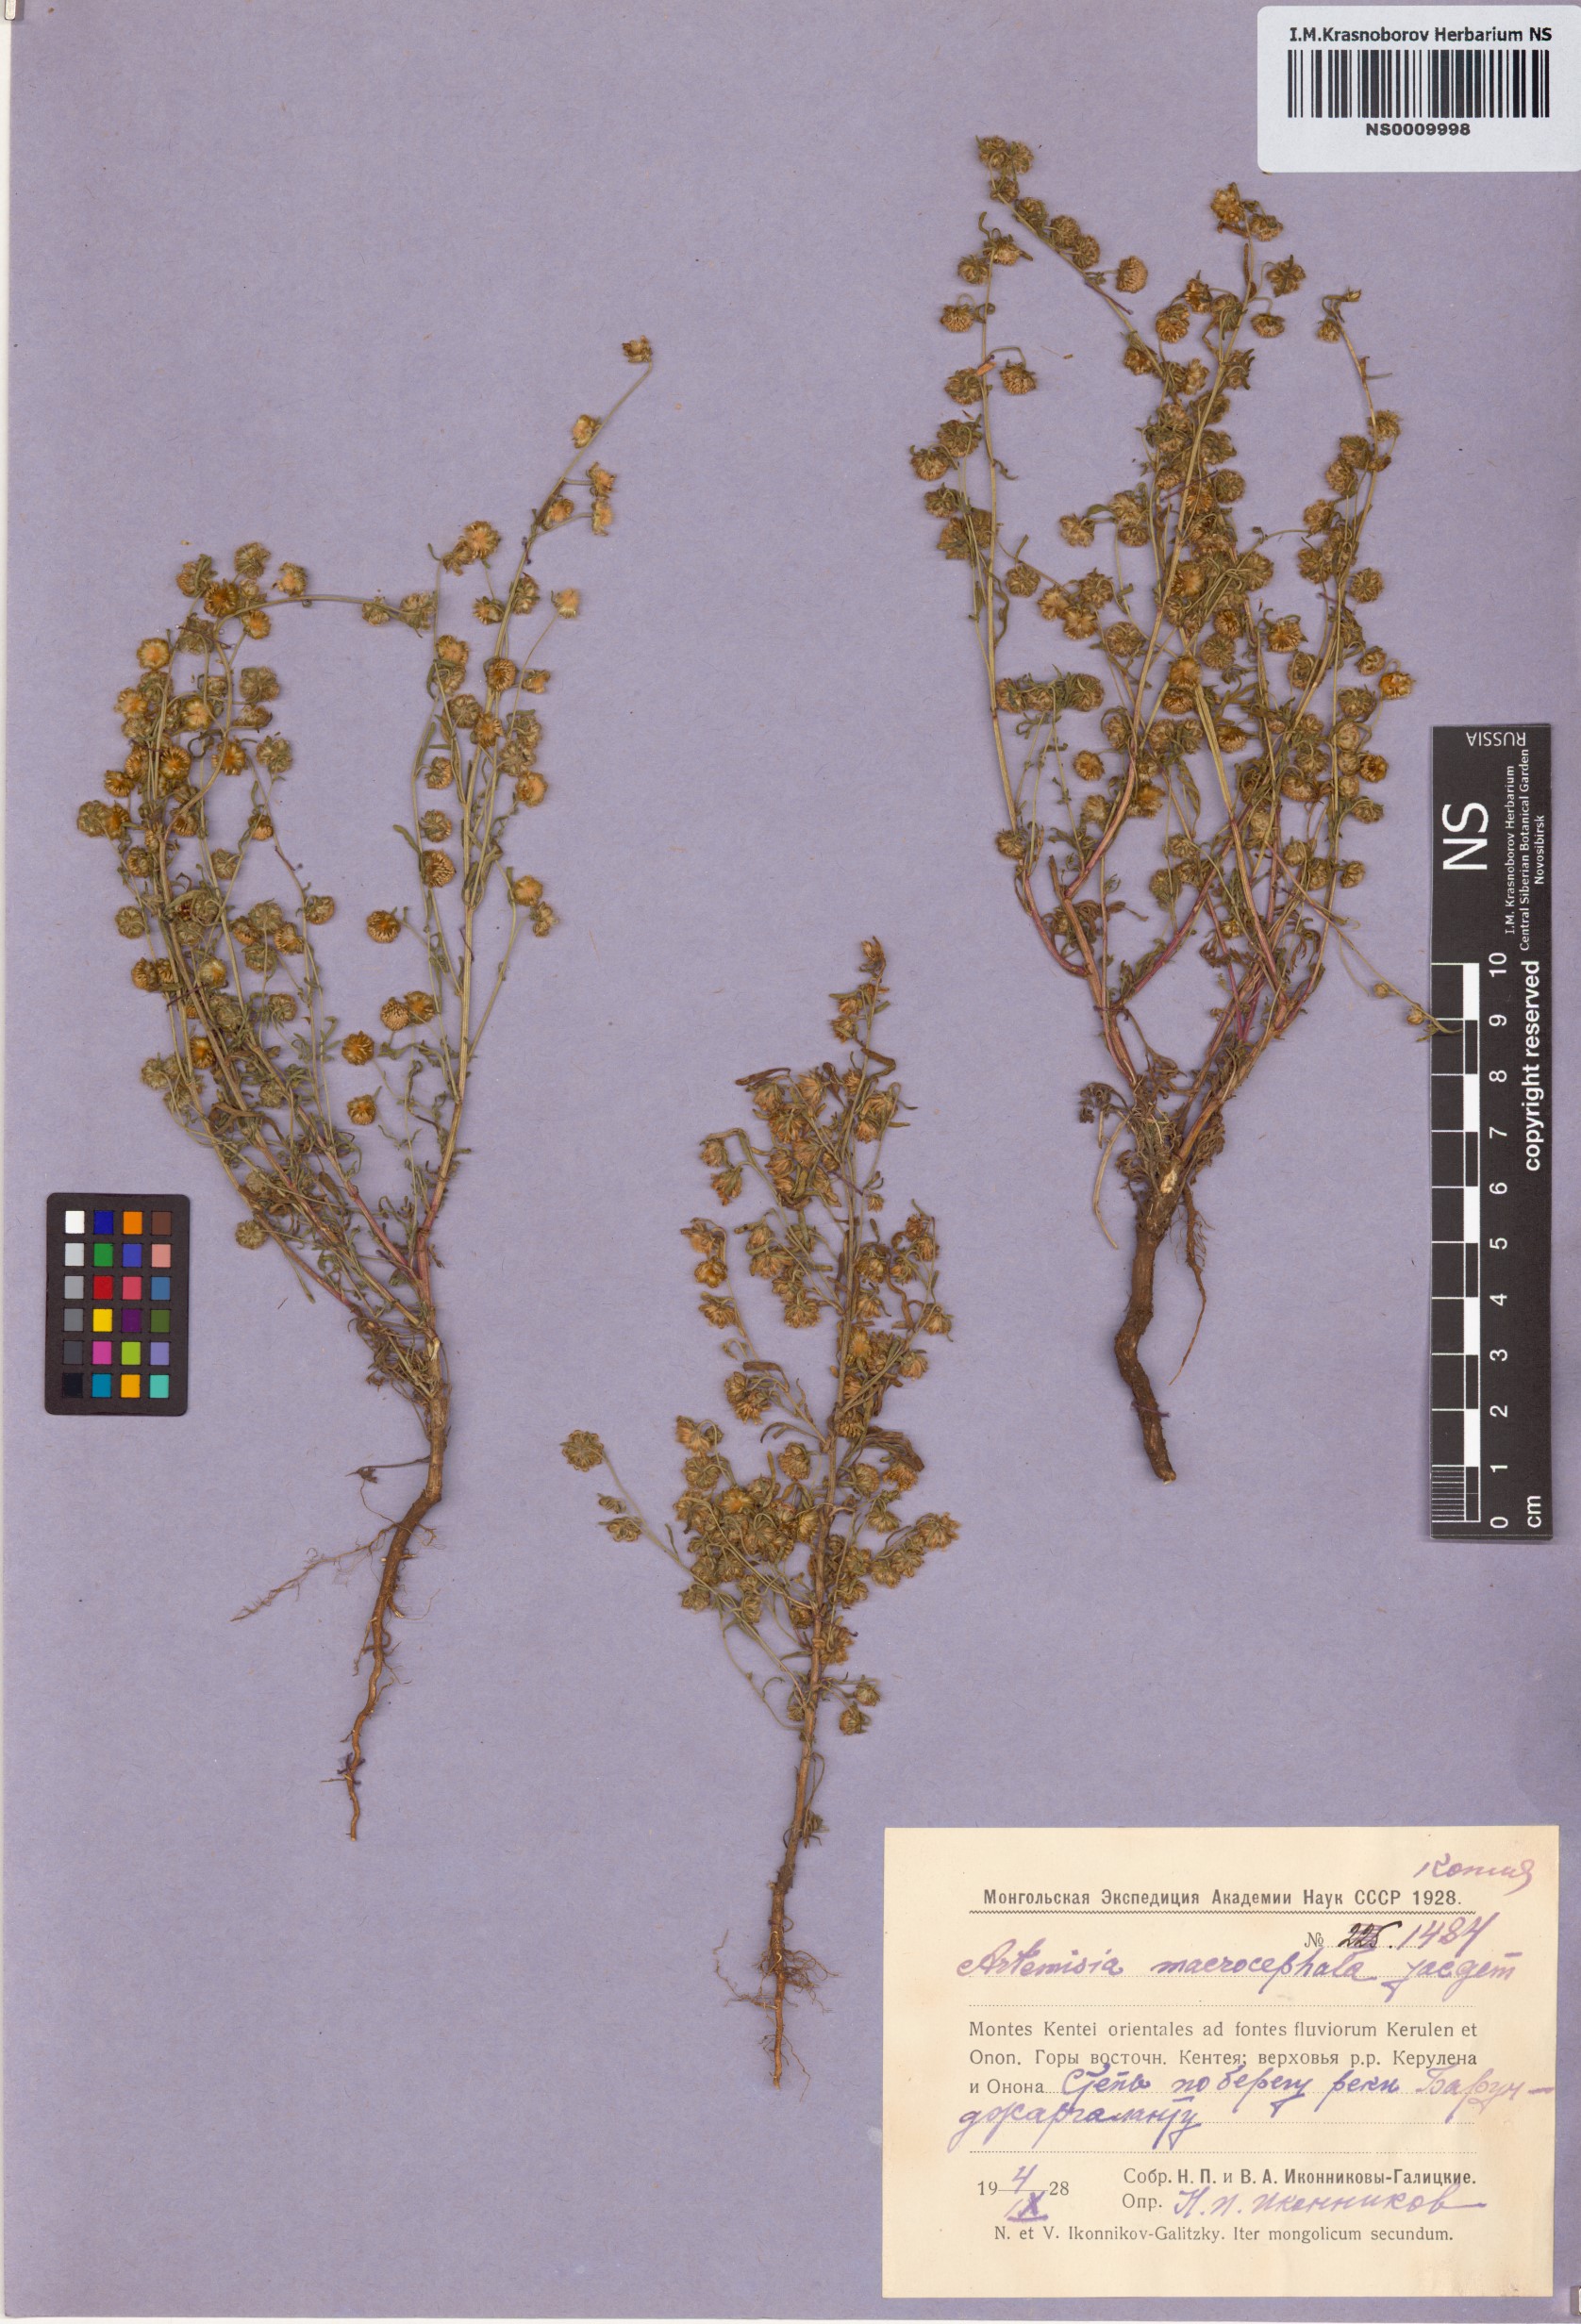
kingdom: Plantae
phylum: Tracheophyta
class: Magnoliopsida
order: Asterales
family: Asteraceae
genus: Artemisia
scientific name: Artemisia macrocephala
